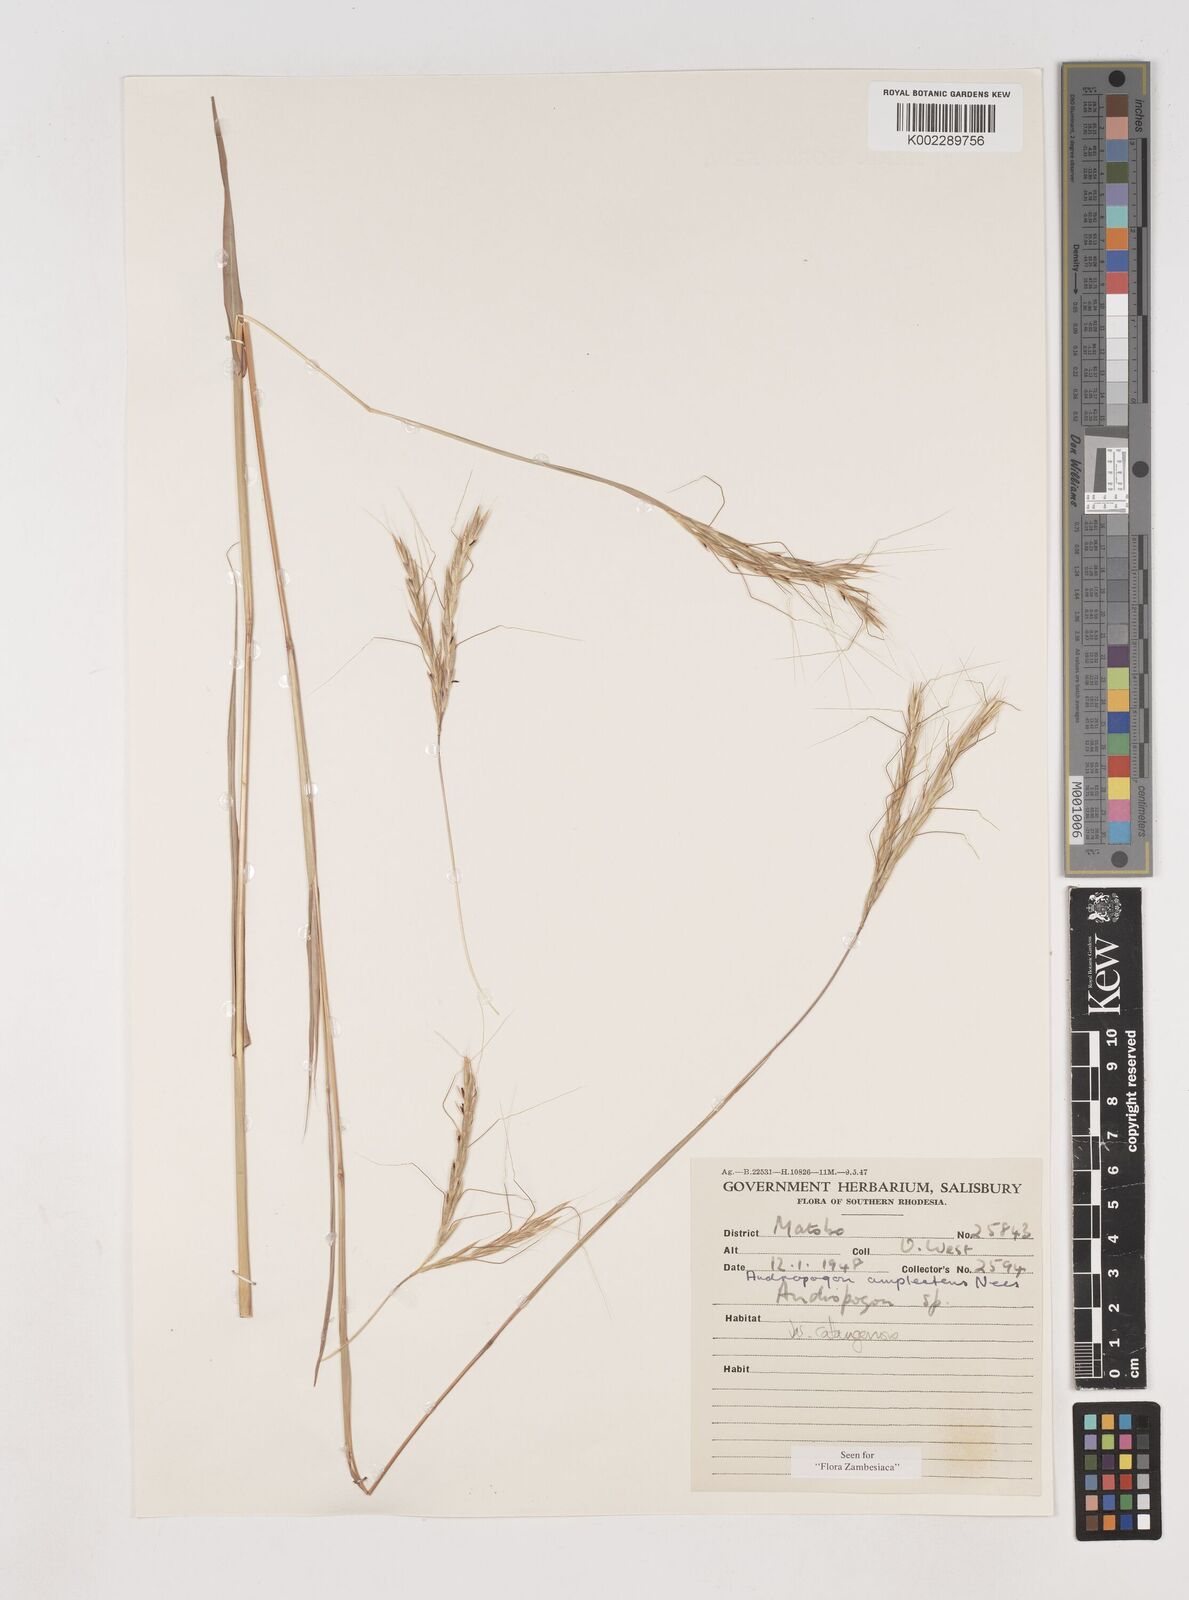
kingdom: Plantae
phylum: Tracheophyta
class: Liliopsida
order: Poales
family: Poaceae
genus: Diheteropogon
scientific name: Diheteropogon amplectens
